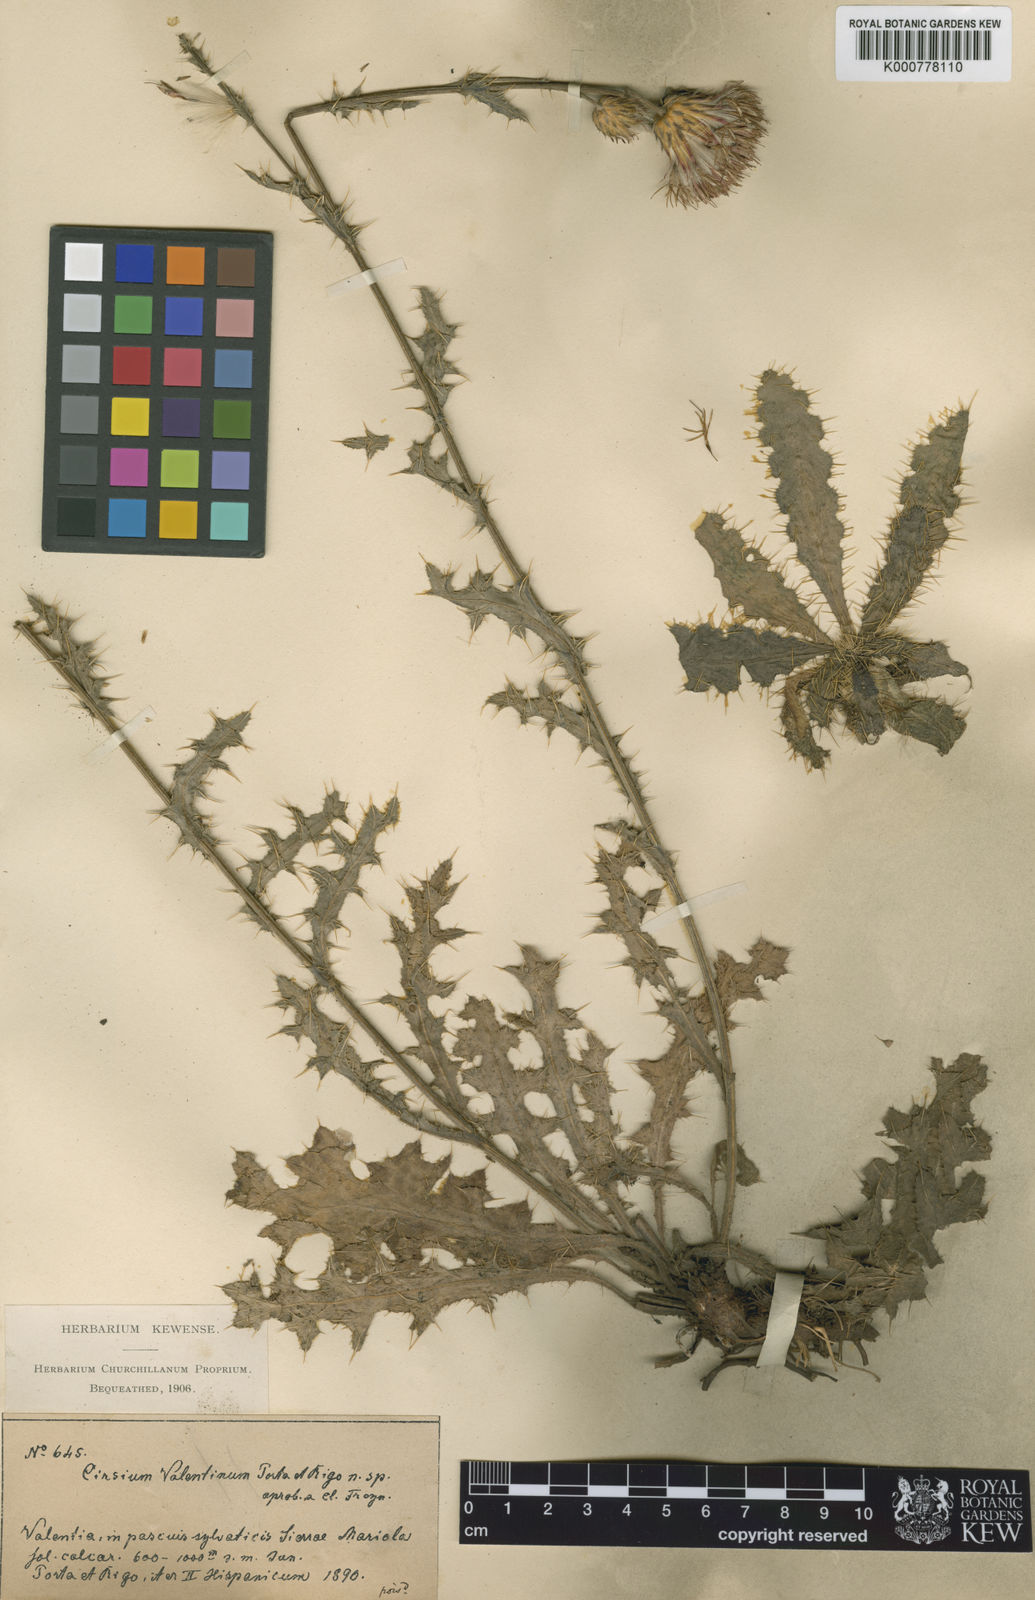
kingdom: Plantae
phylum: Tracheophyta
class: Magnoliopsida
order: Asterales
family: Asteraceae
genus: Cirsium
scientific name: Cirsium valentinum
